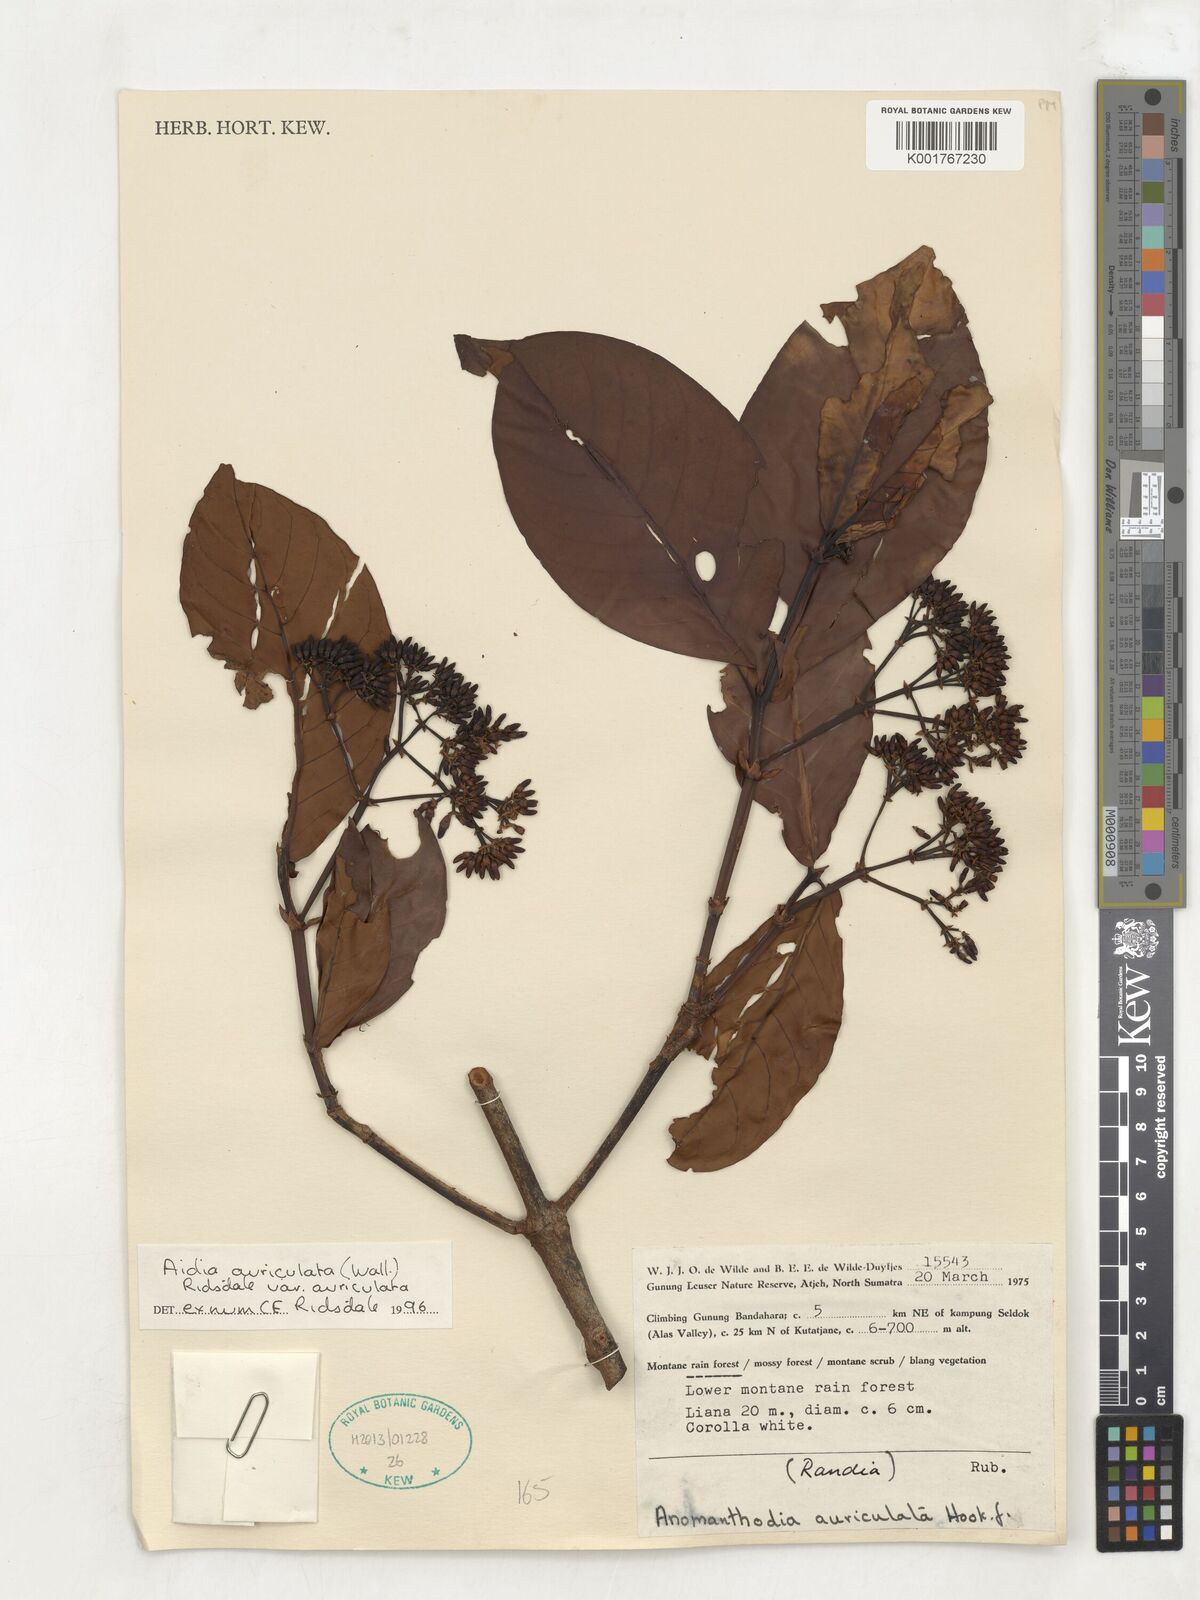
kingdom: Plantae
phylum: Tracheophyta
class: Magnoliopsida
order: Gentianales
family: Rubiaceae
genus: Aidia
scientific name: Aidia auriculata
